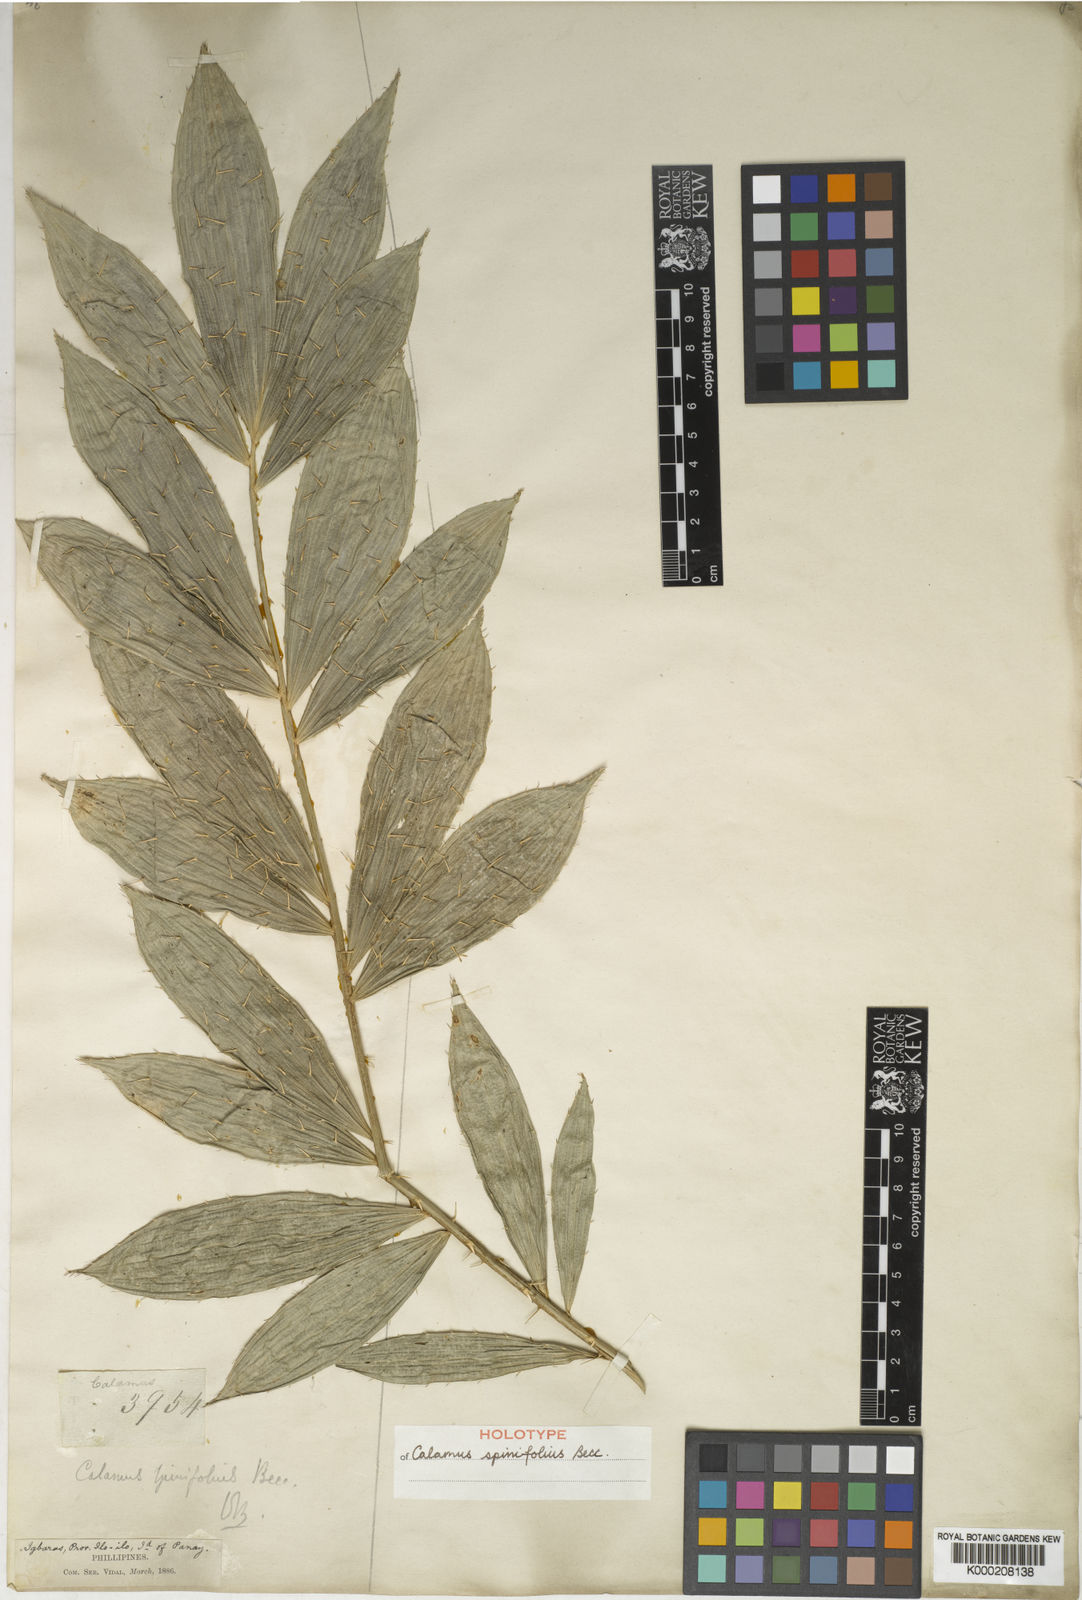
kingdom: Plantae
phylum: Tracheophyta
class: Liliopsida
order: Arecales
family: Arecaceae
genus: Calamus
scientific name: Calamus moseleyanus
